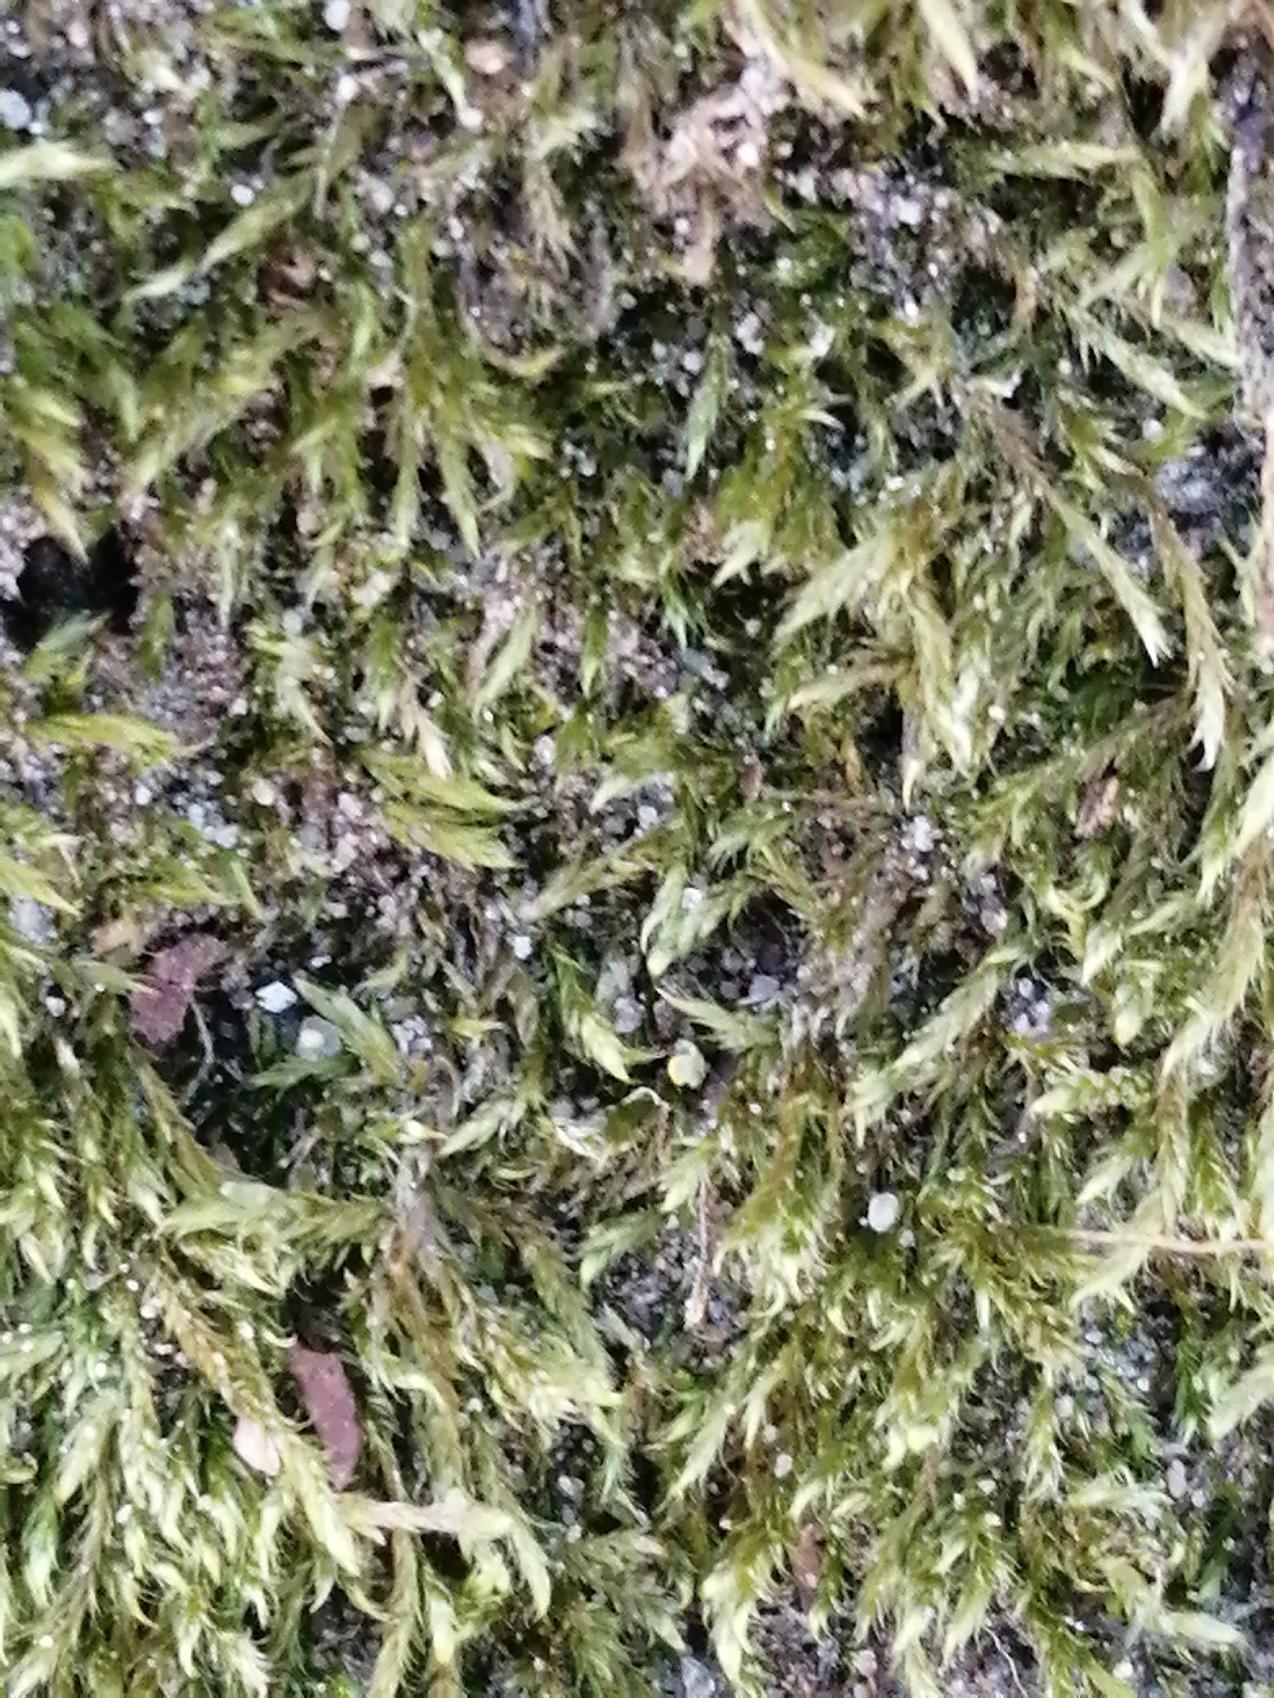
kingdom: Plantae
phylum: Bryophyta
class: Bryopsida
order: Hypnales
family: Hypnaceae
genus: Hypnum
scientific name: Hypnum
